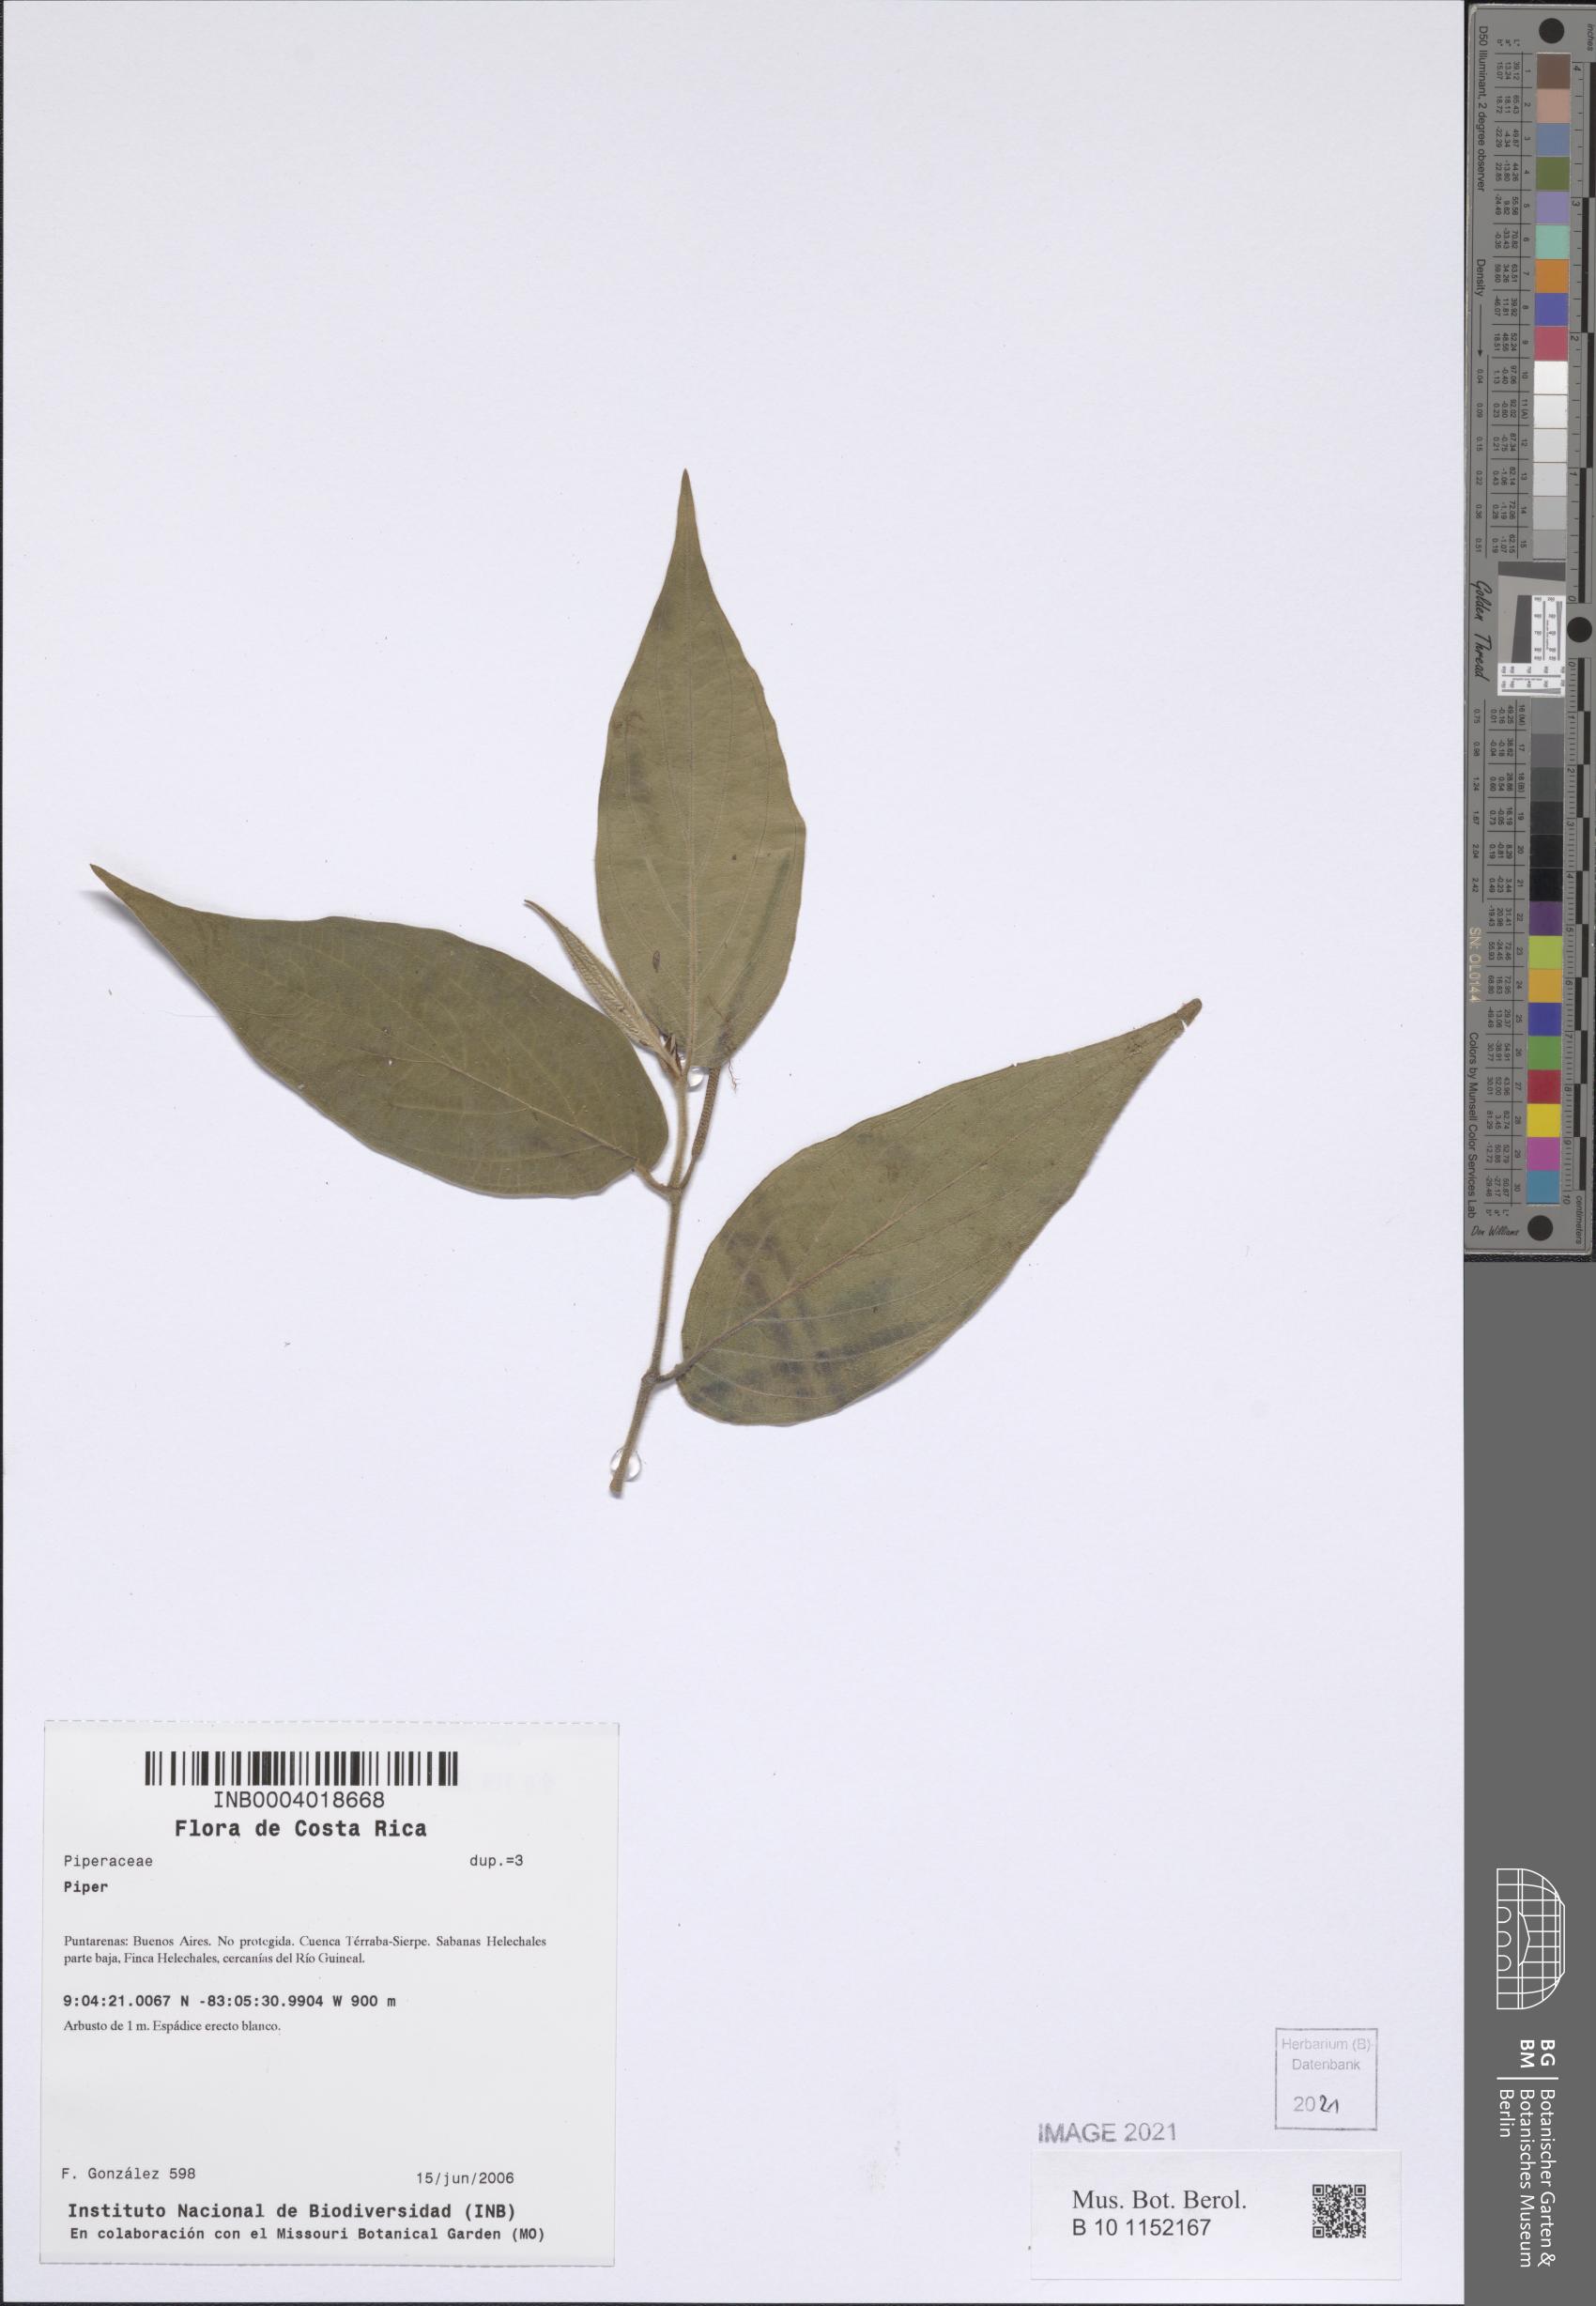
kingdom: Plantae
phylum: Tracheophyta
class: Magnoliopsida
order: Piperales
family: Piperaceae
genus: Piper
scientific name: Piper
